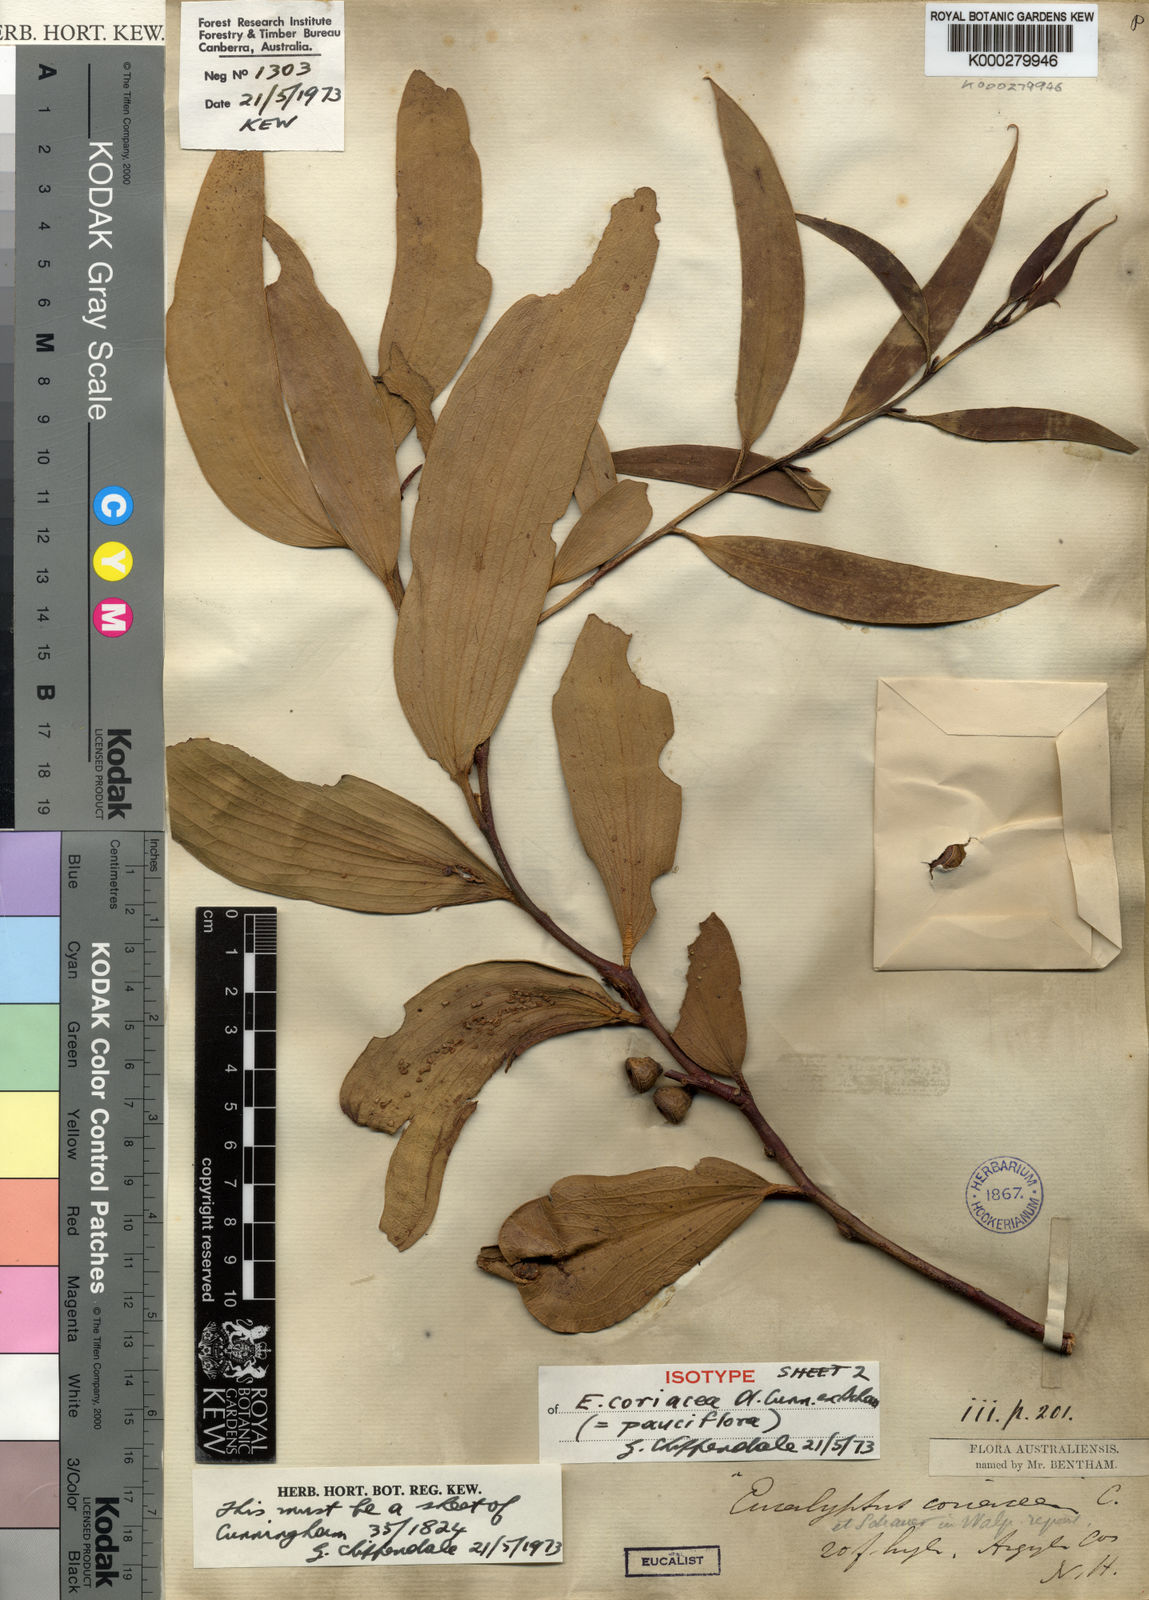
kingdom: Plantae
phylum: Tracheophyta
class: Magnoliopsida
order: Myrtales
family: Myrtaceae
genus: Eucalyptus
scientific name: Eucalyptus pauciflora
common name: Snow gum
